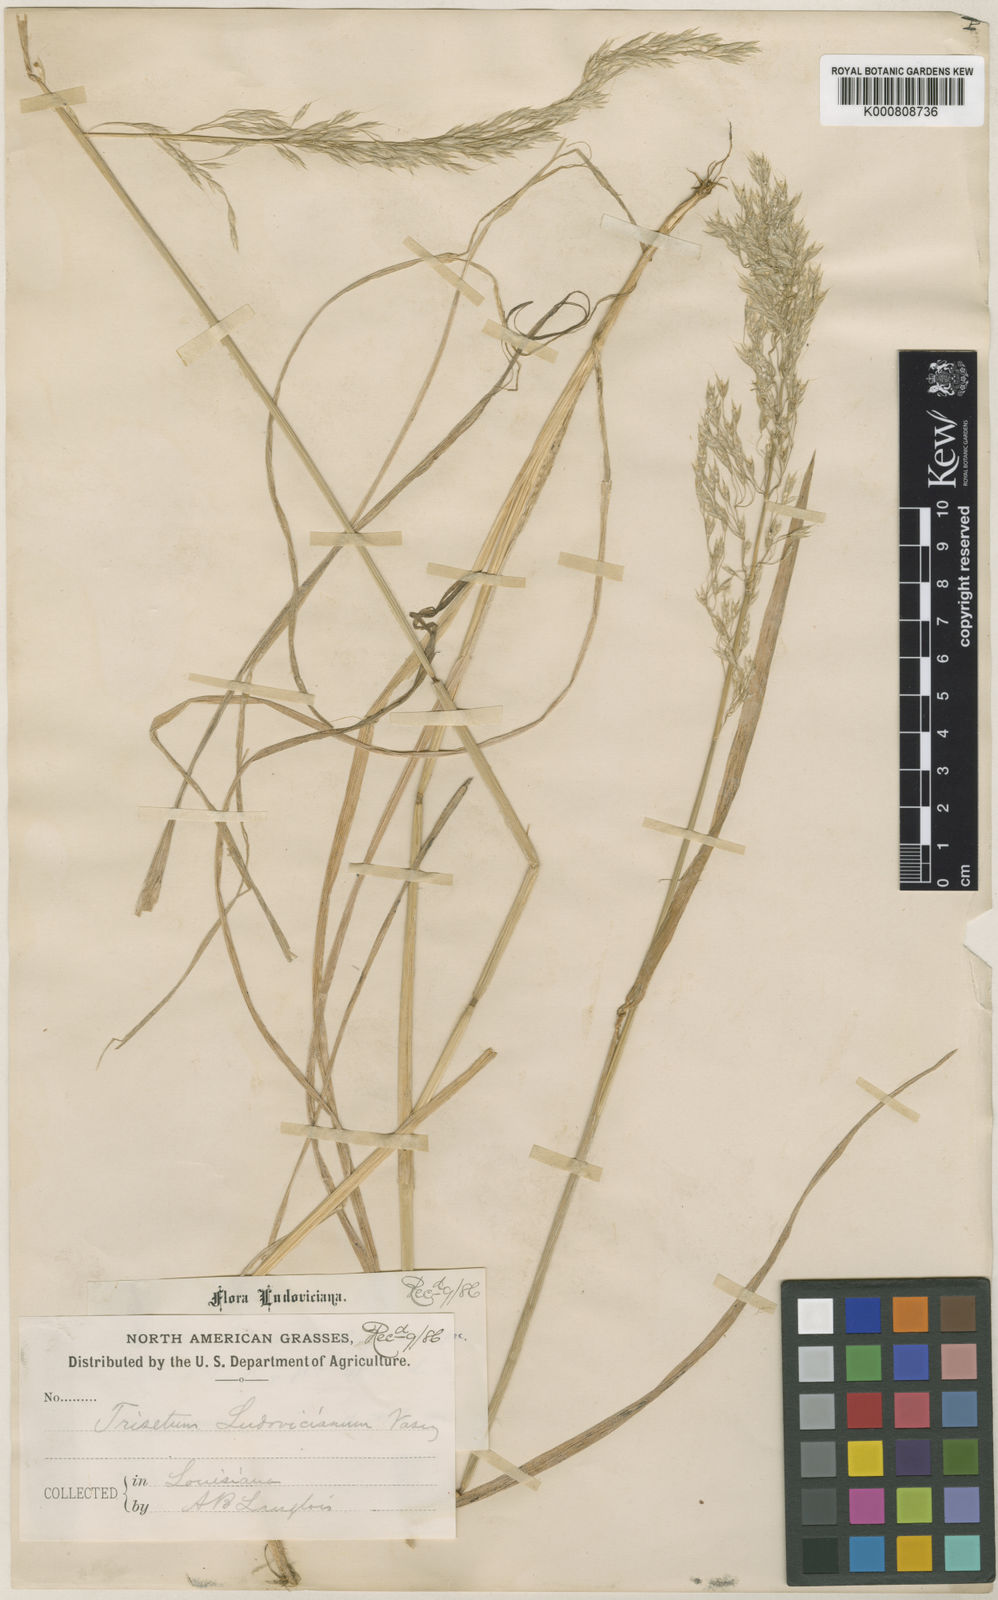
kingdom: Plantae
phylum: Tracheophyta
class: Liliopsida
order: Poales
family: Poaceae
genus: Sphenopholis
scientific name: Sphenopholis pensylvanica
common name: Swamp oats
